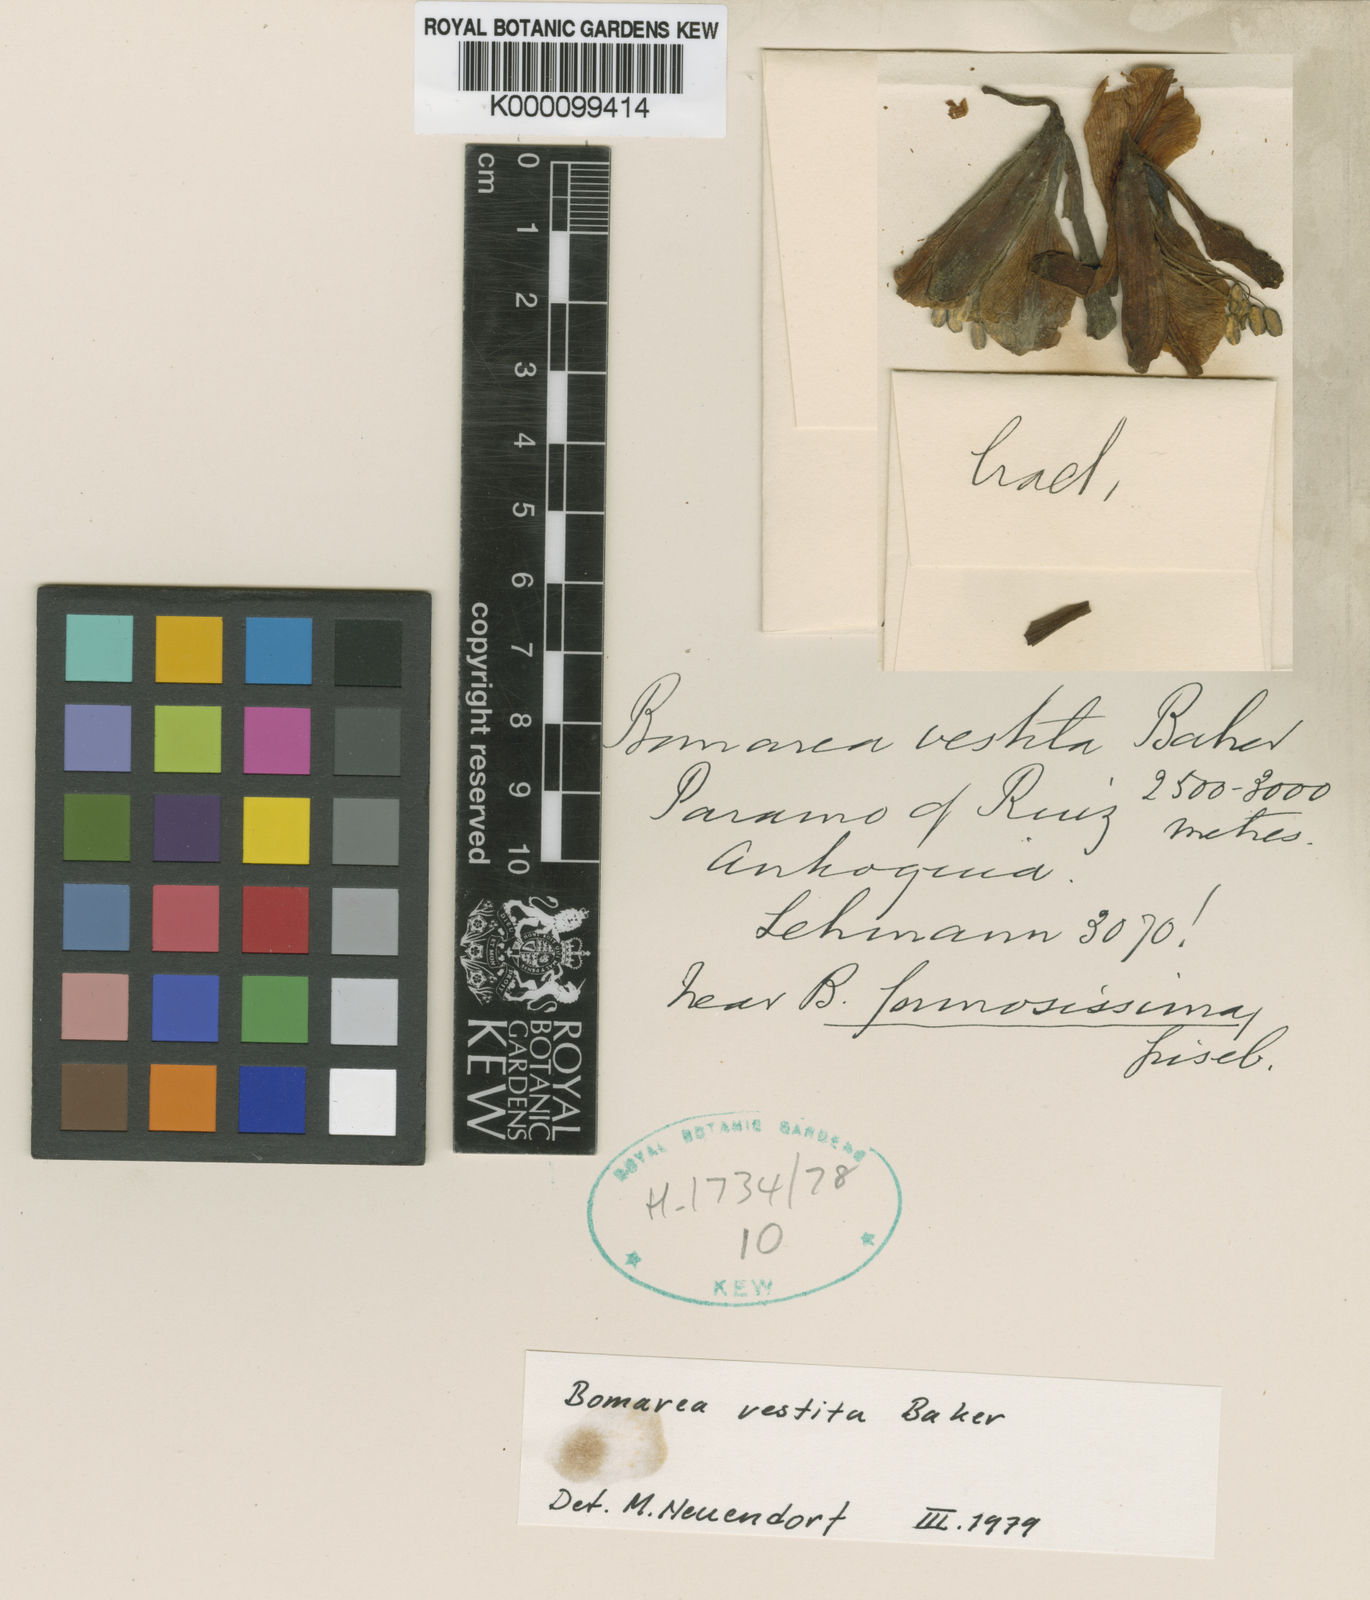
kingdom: Plantae
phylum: Tracheophyta
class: Liliopsida
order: Liliales
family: Alstroemeriaceae
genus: Bomarea
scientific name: Bomarea multiflora
